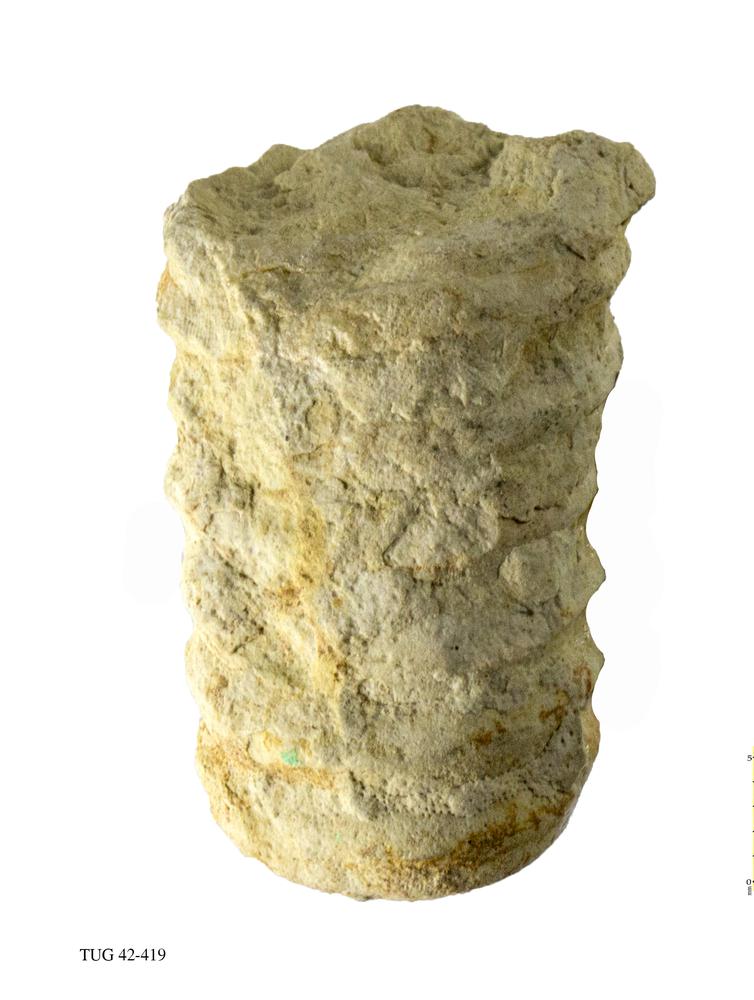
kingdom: Animalia
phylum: Mollusca
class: Cephalopoda
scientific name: Cephalopoda
